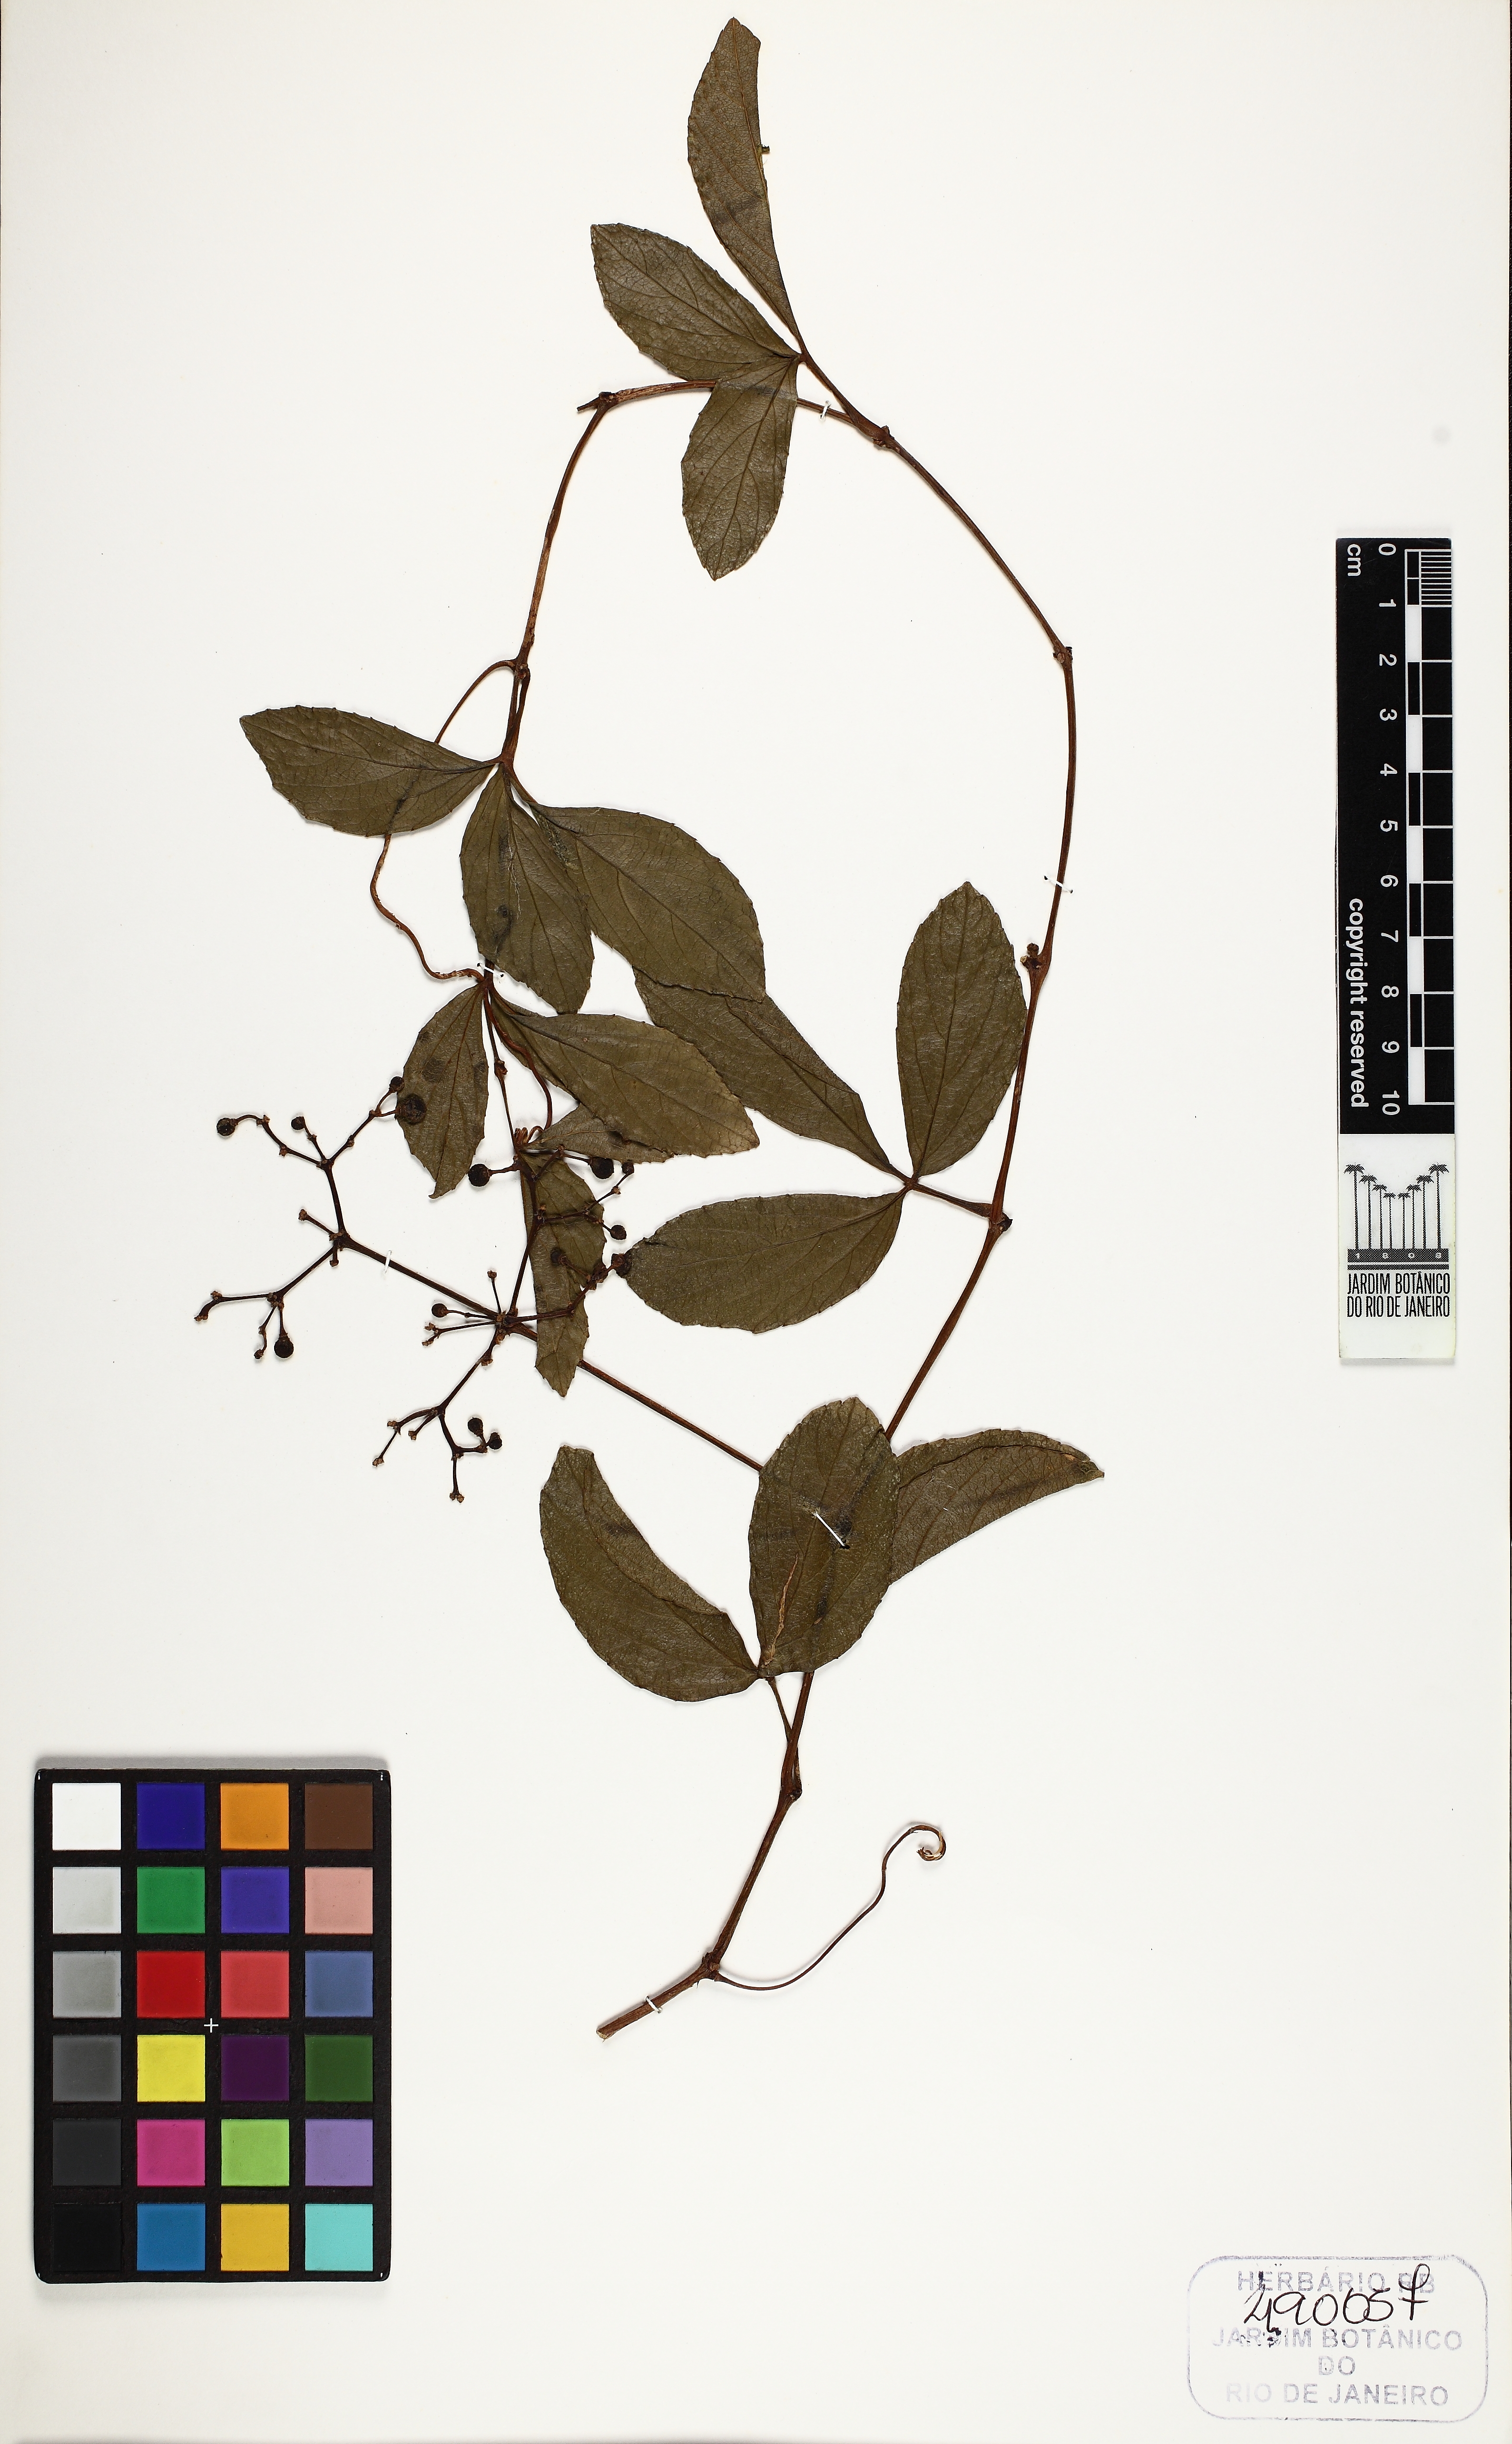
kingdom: Plantae
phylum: Tracheophyta
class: Magnoliopsida
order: Vitales
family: Vitaceae
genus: Cissus
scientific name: Cissus erosa
